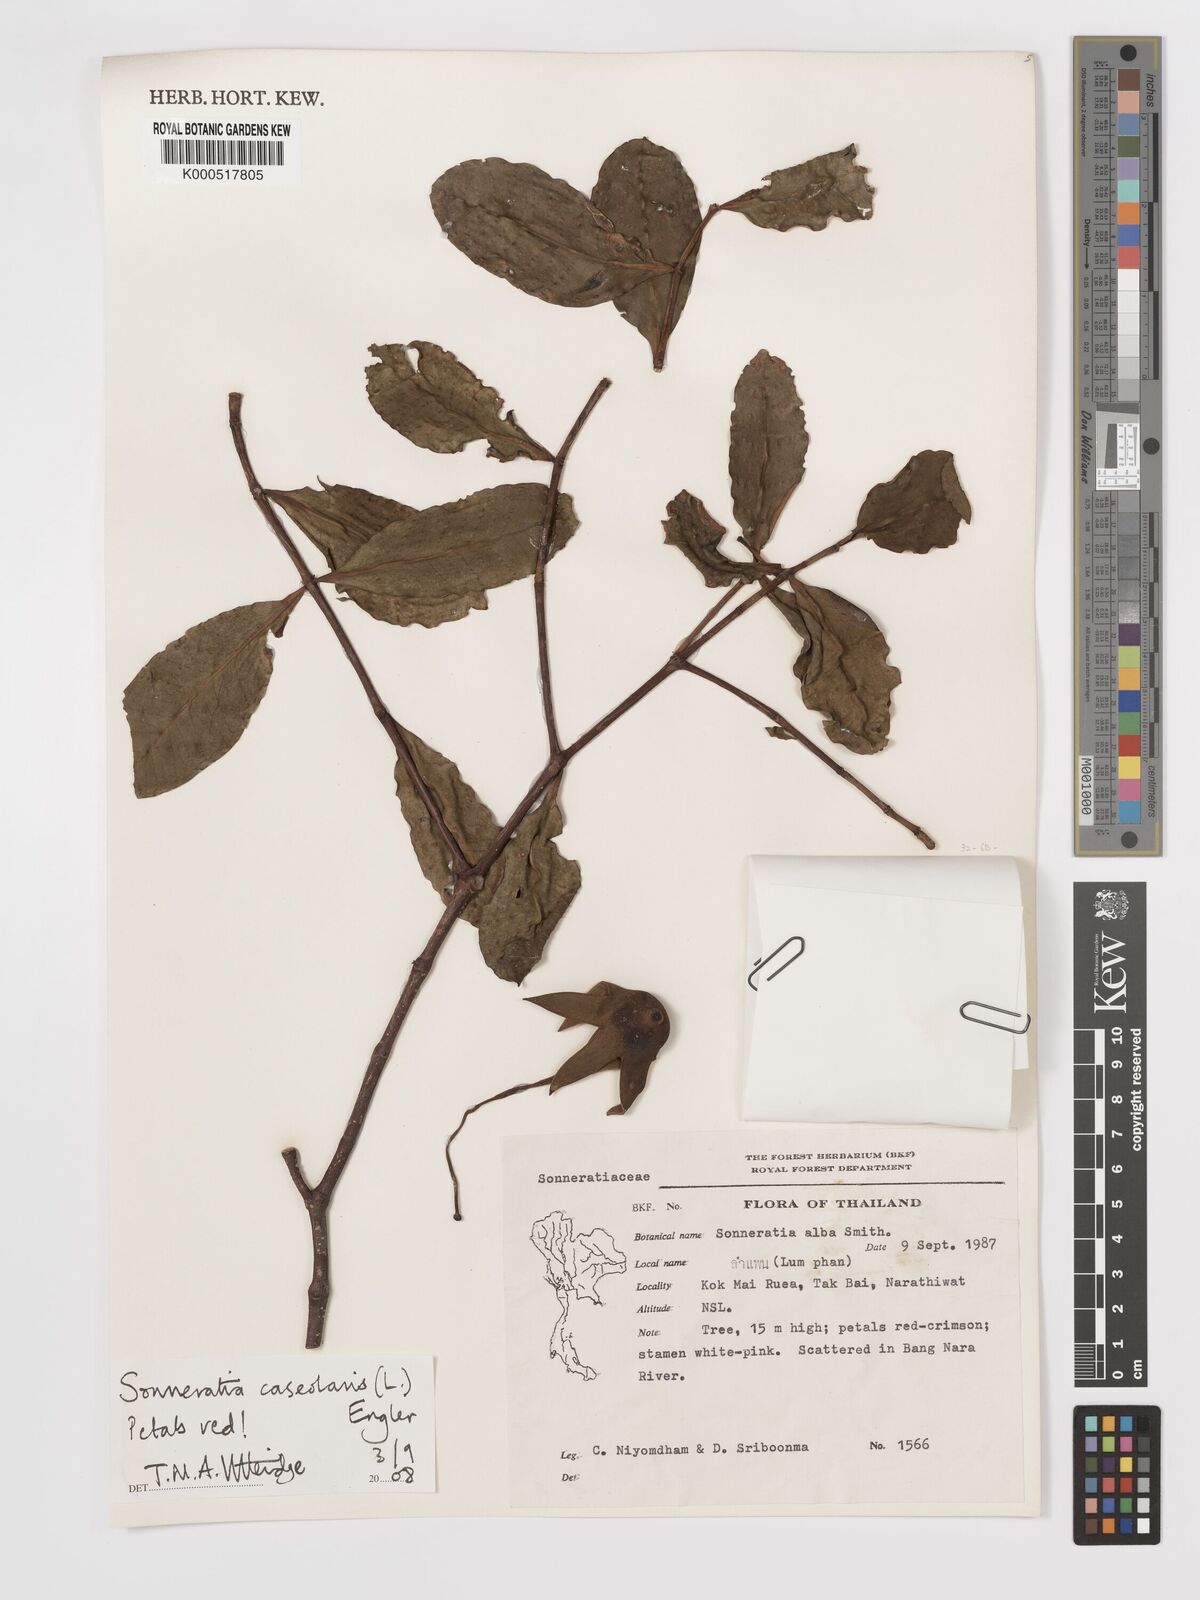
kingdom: Plantae
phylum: Tracheophyta
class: Magnoliopsida
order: Myrtales
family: Lythraceae
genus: Sonneratia
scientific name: Sonneratia caseolaris
